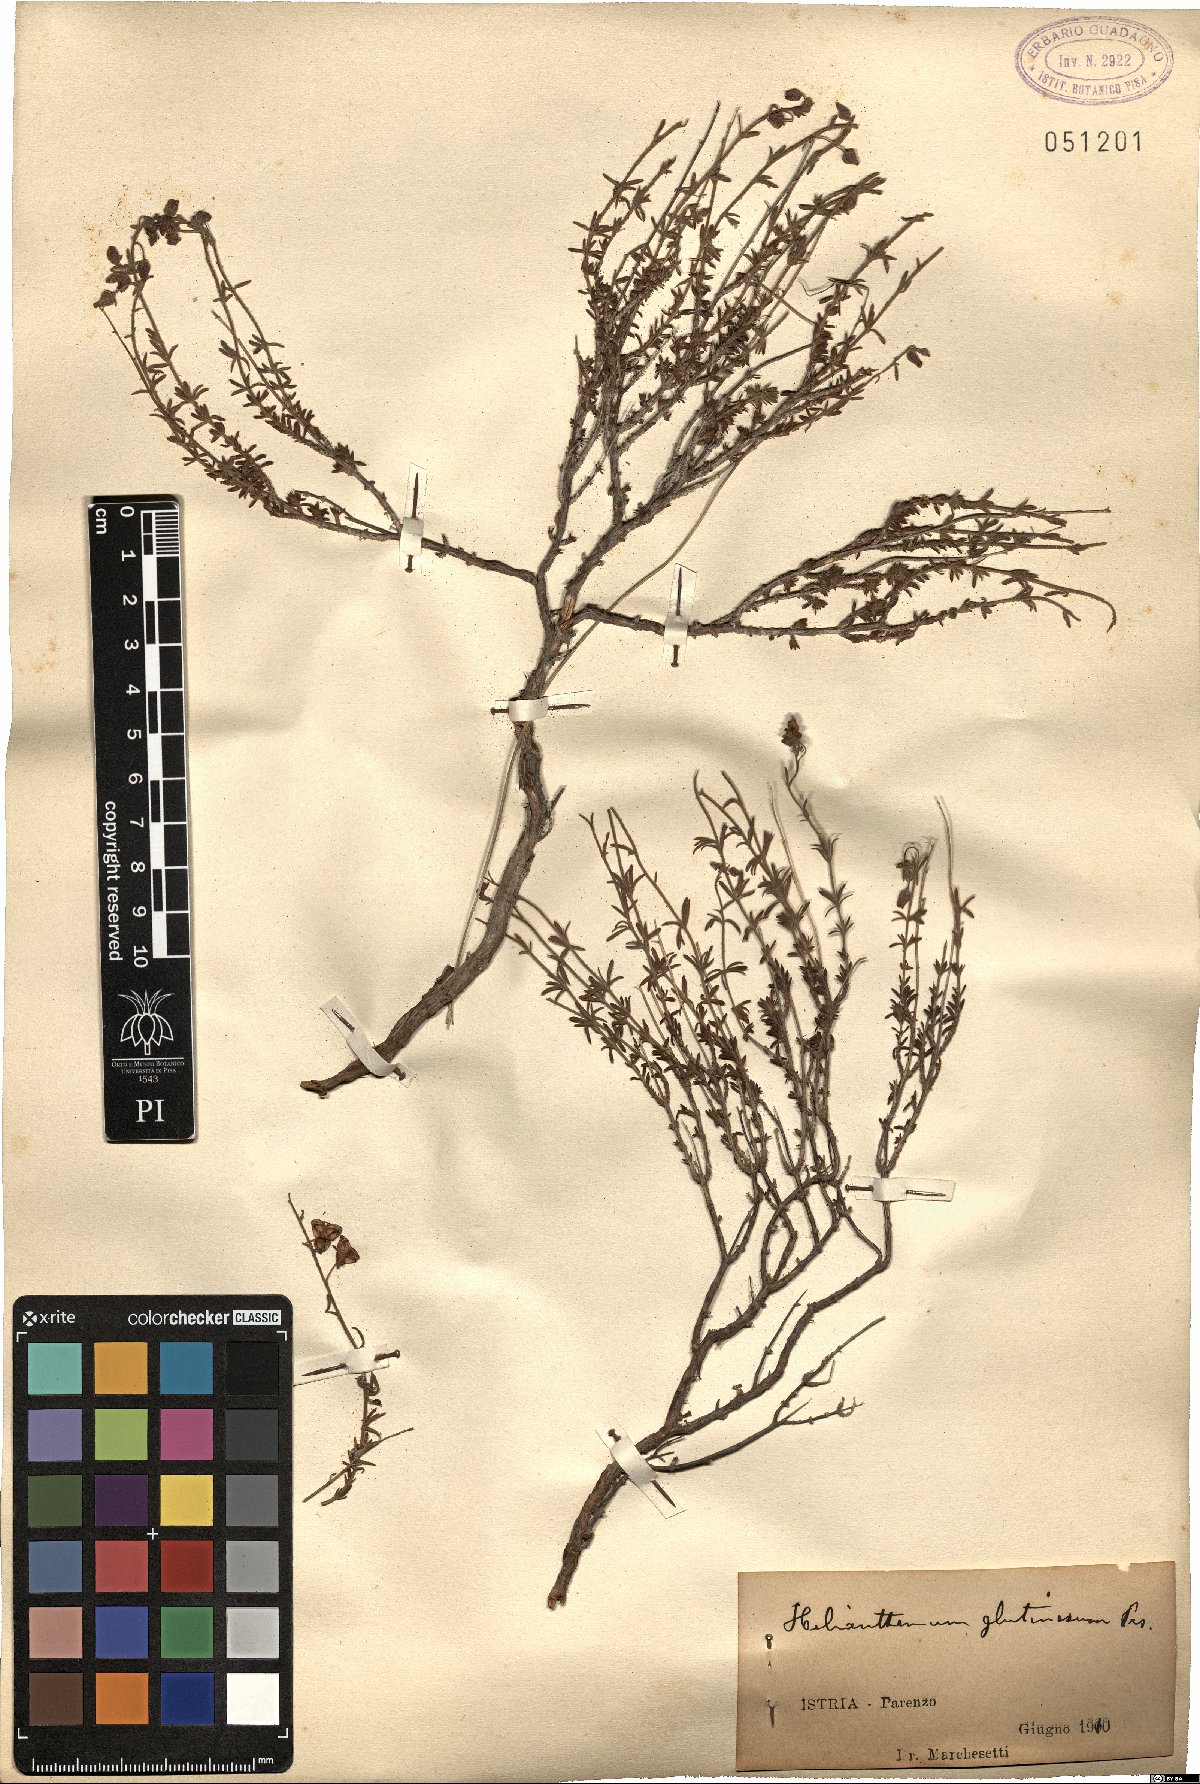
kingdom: Plantae
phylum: Tracheophyta
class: Magnoliopsida
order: Malvales
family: Cistaceae
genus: Fumana
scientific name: Fumana thymifolia
